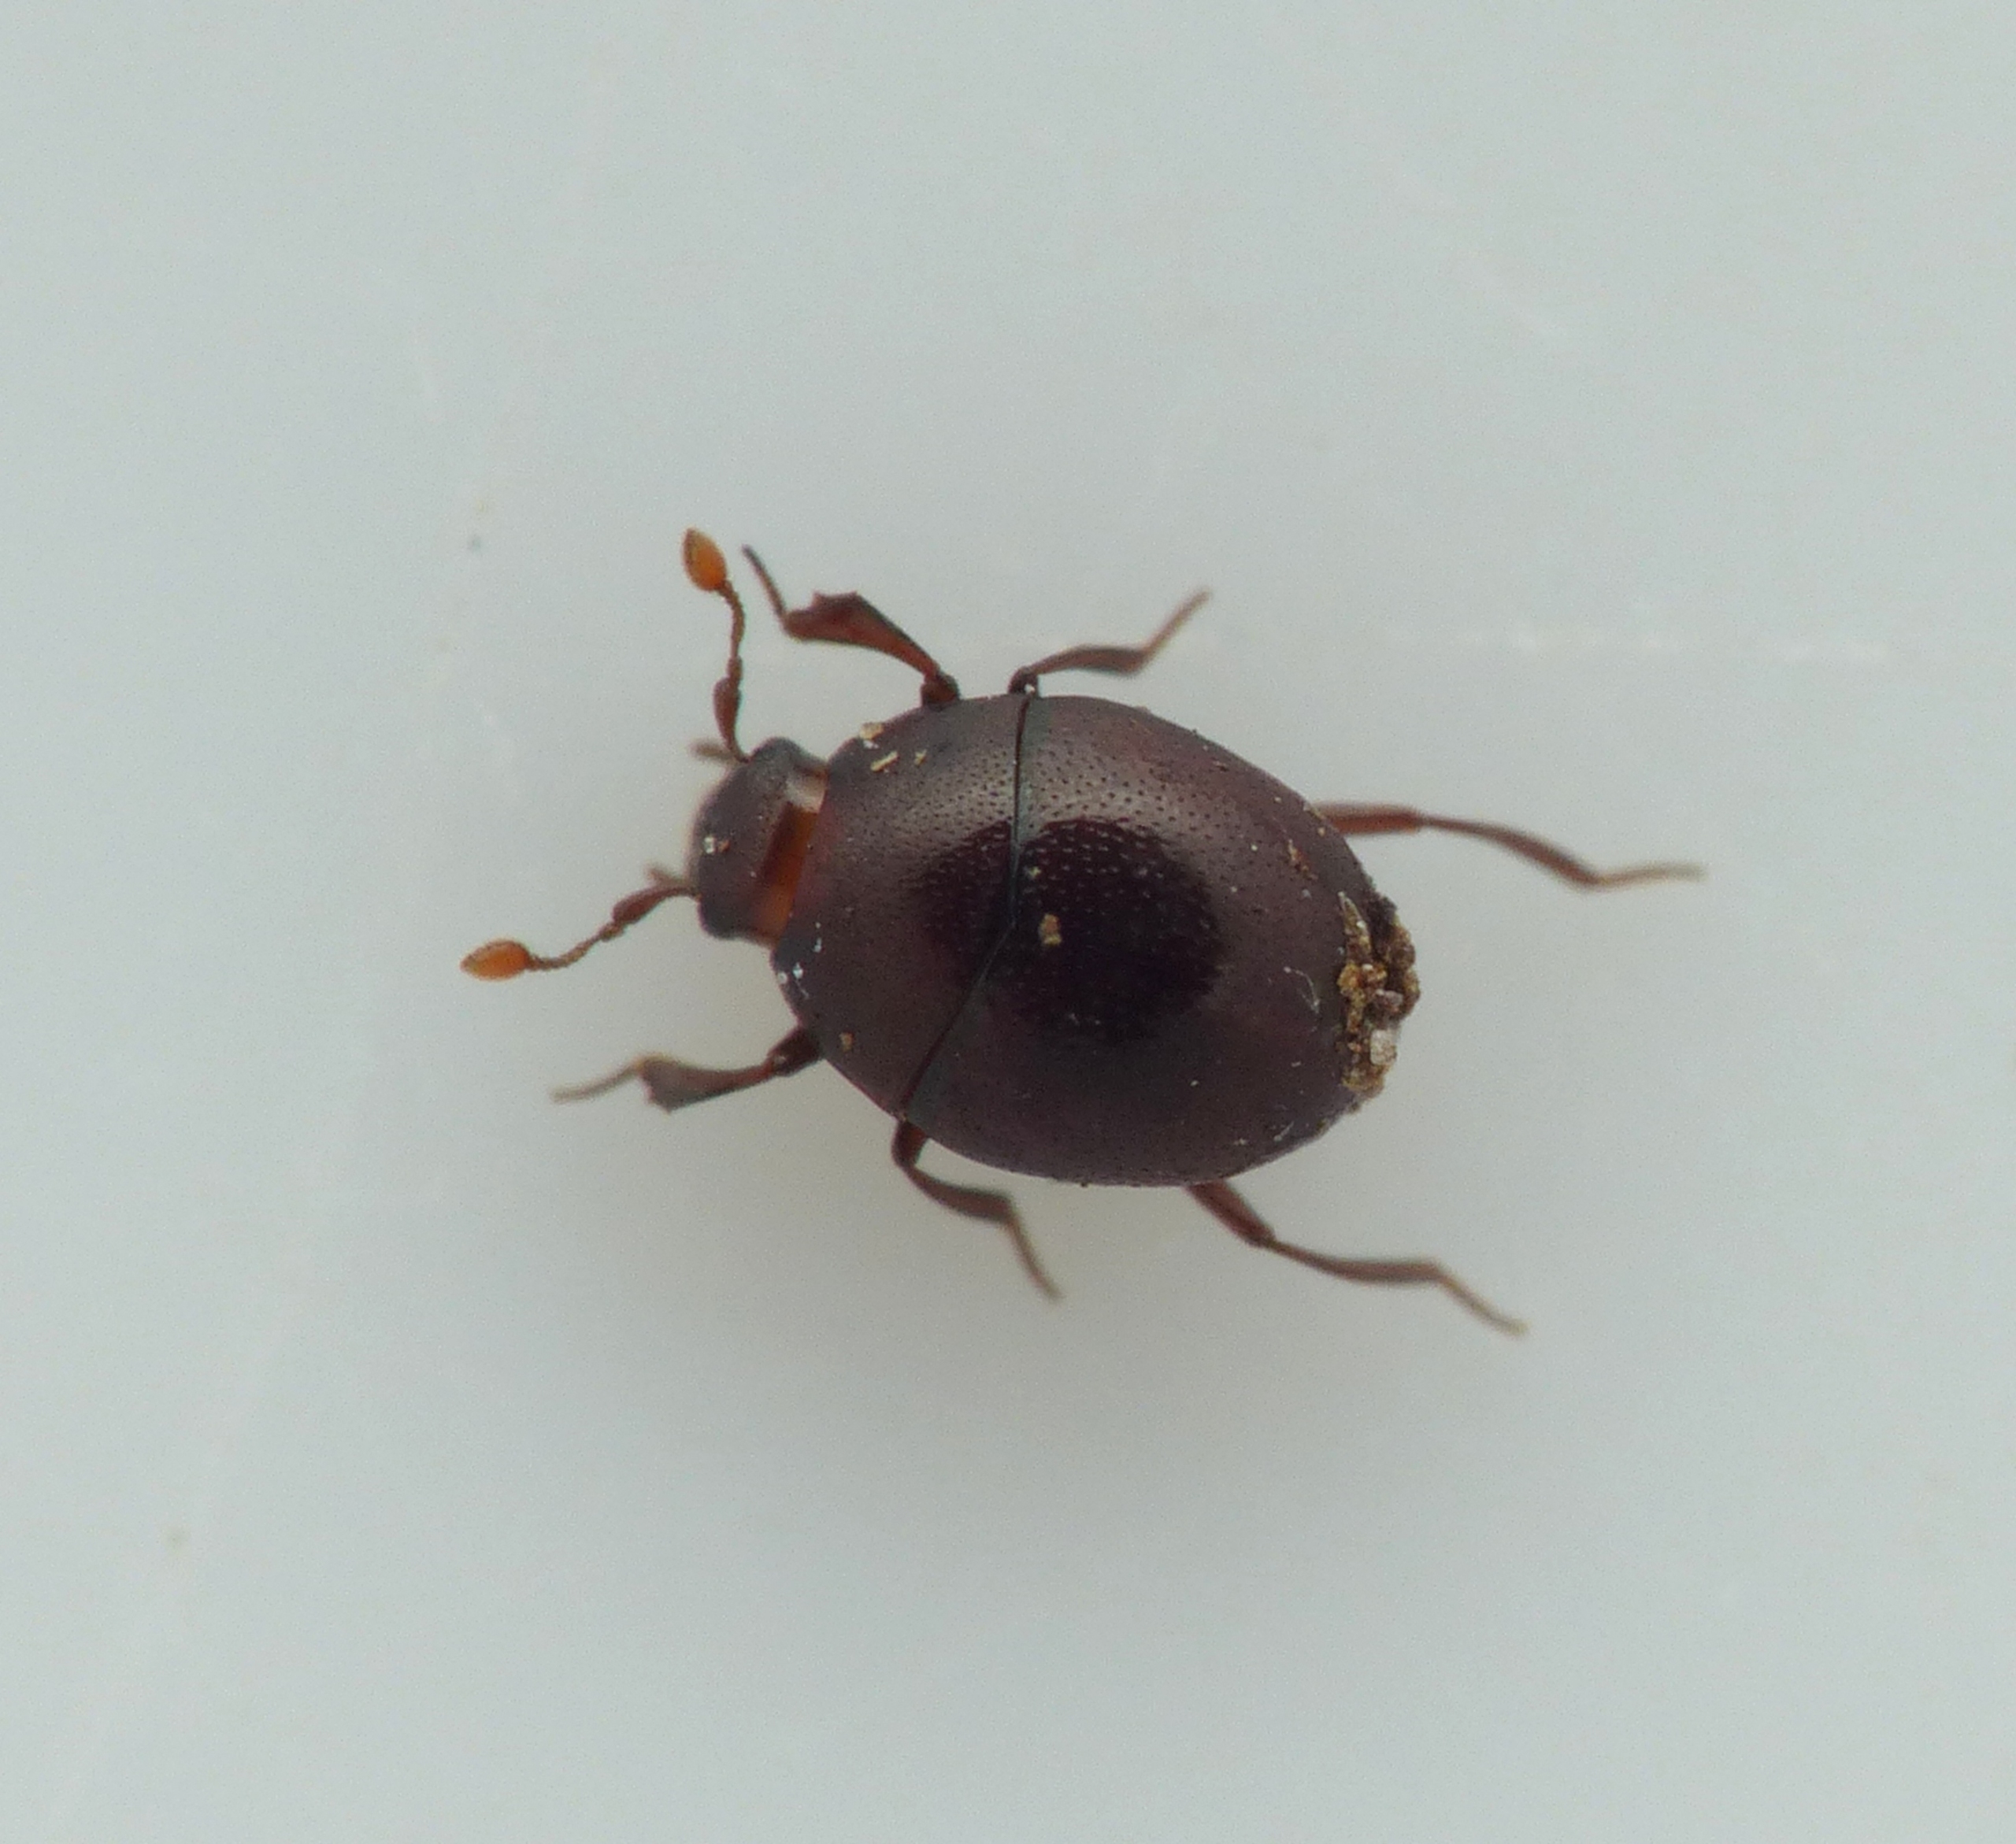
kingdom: Animalia
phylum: Arthropoda
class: Insecta
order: Coleoptera
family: Histeridae
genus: Abraeus
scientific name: Abraeus perpusillus
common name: Brun kuglestumpbille
